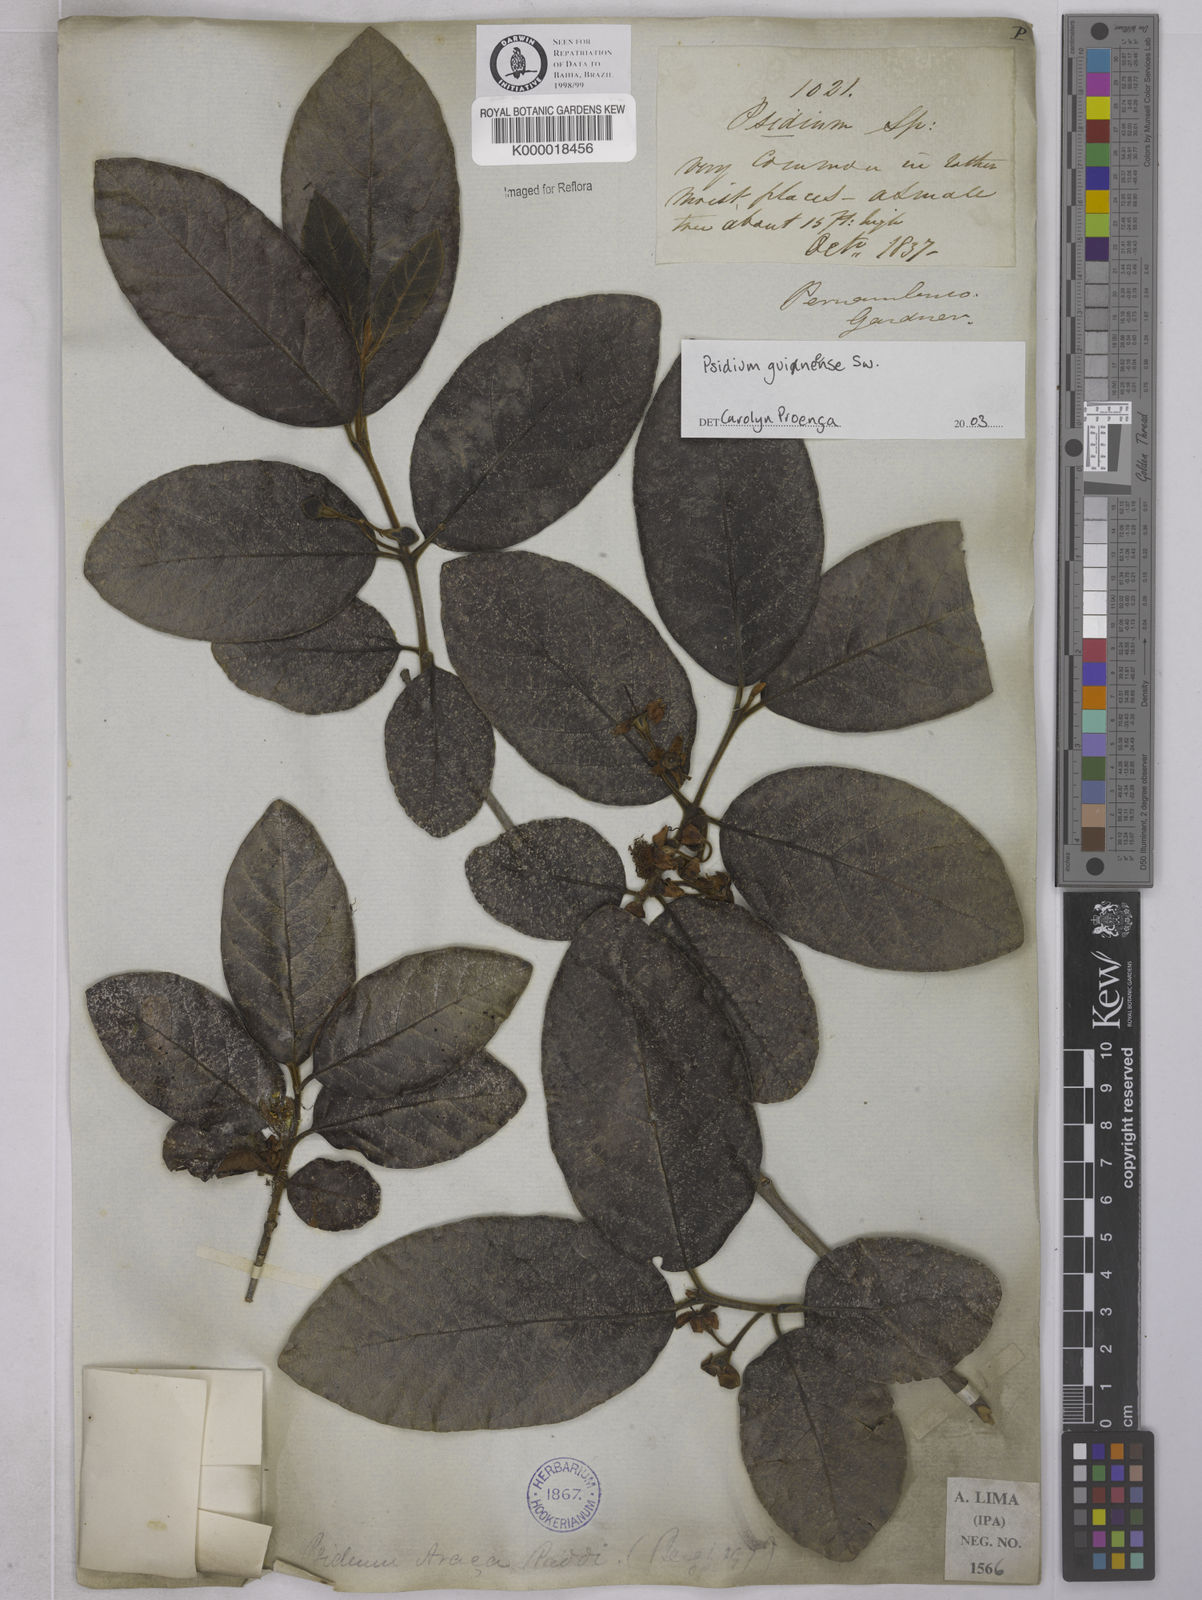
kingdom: Plantae
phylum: Tracheophyta
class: Magnoliopsida
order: Myrtales
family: Myrtaceae
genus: Psidium
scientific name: Psidium guineense
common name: Brazilian guava
